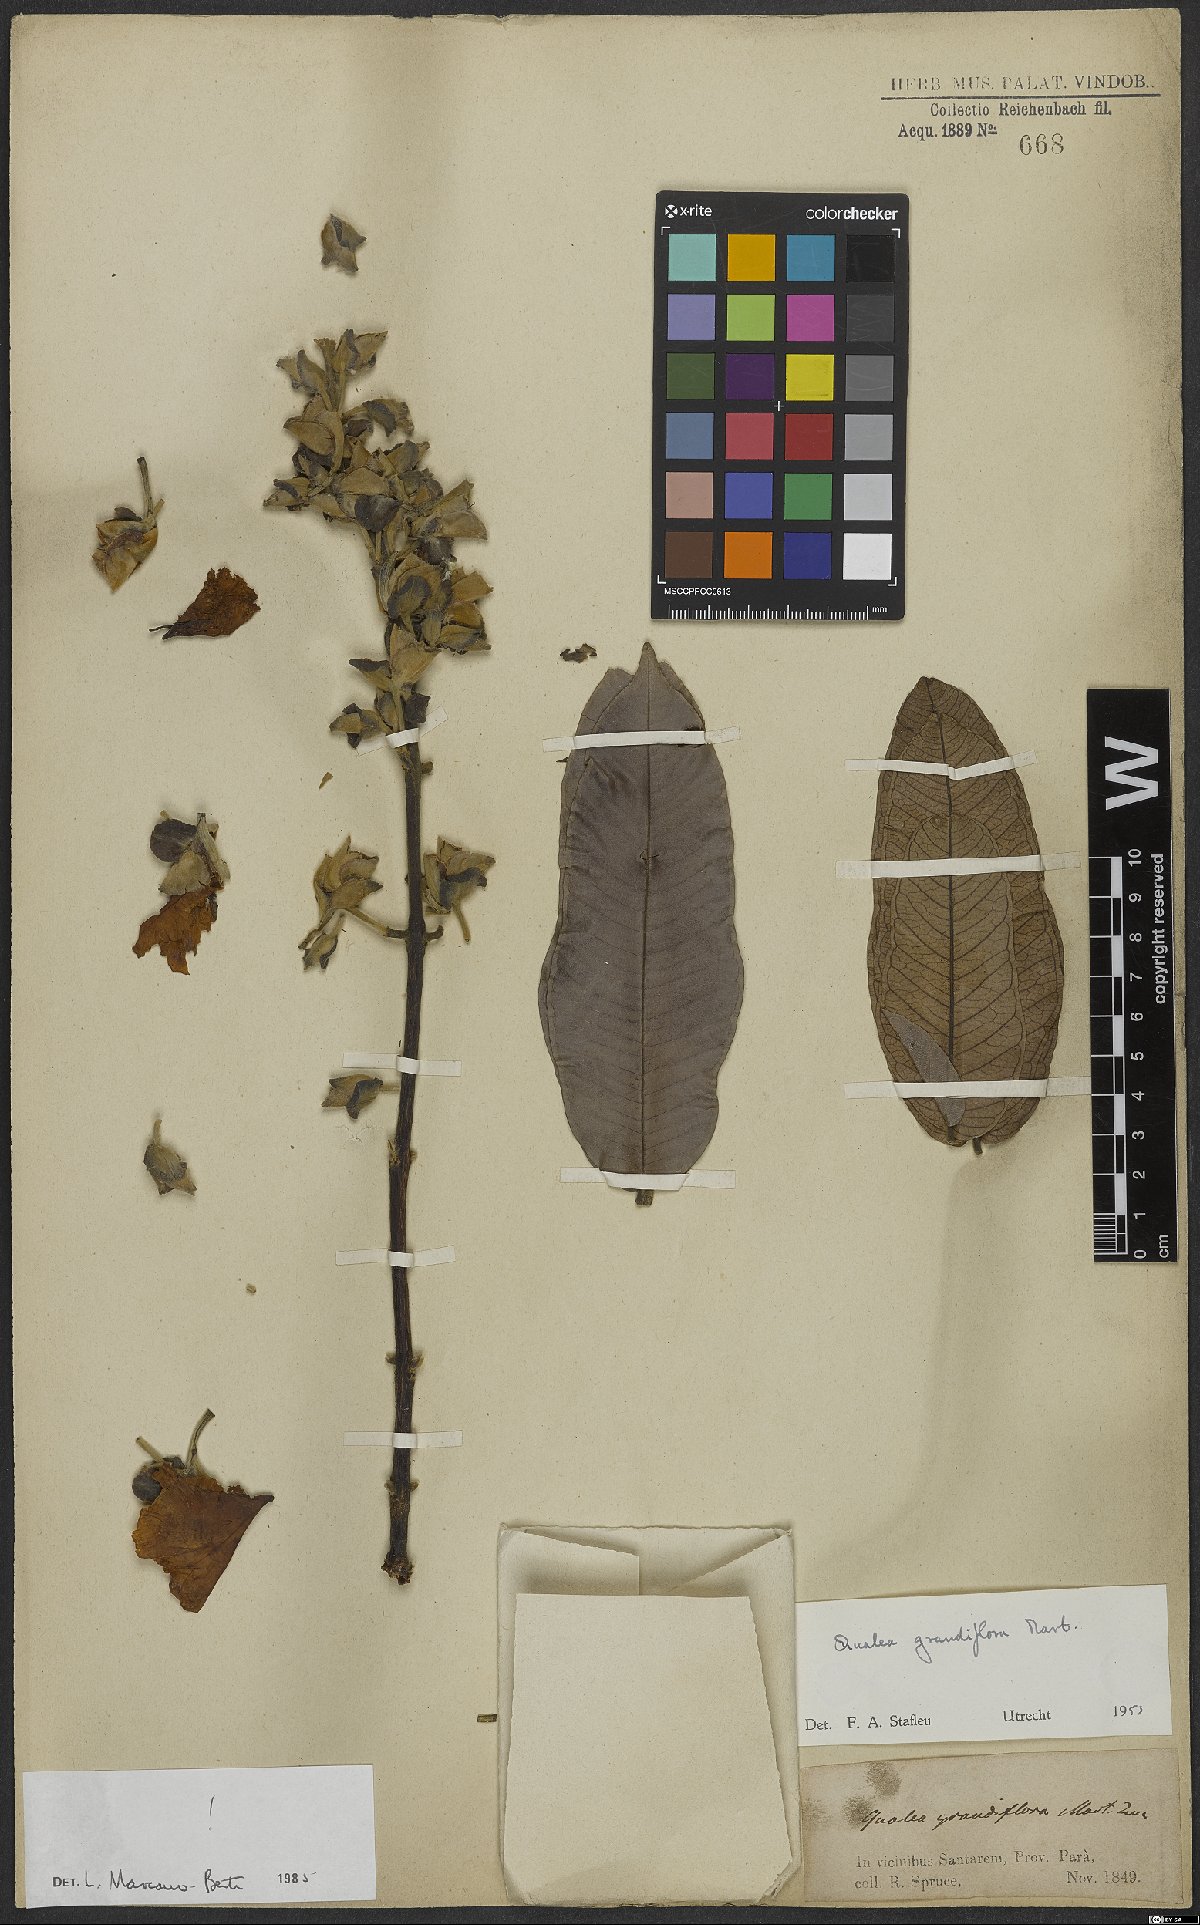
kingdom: Plantae
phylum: Tracheophyta
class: Magnoliopsida
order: Myrtales
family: Vochysiaceae
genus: Qualea
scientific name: Qualea grandiflora
